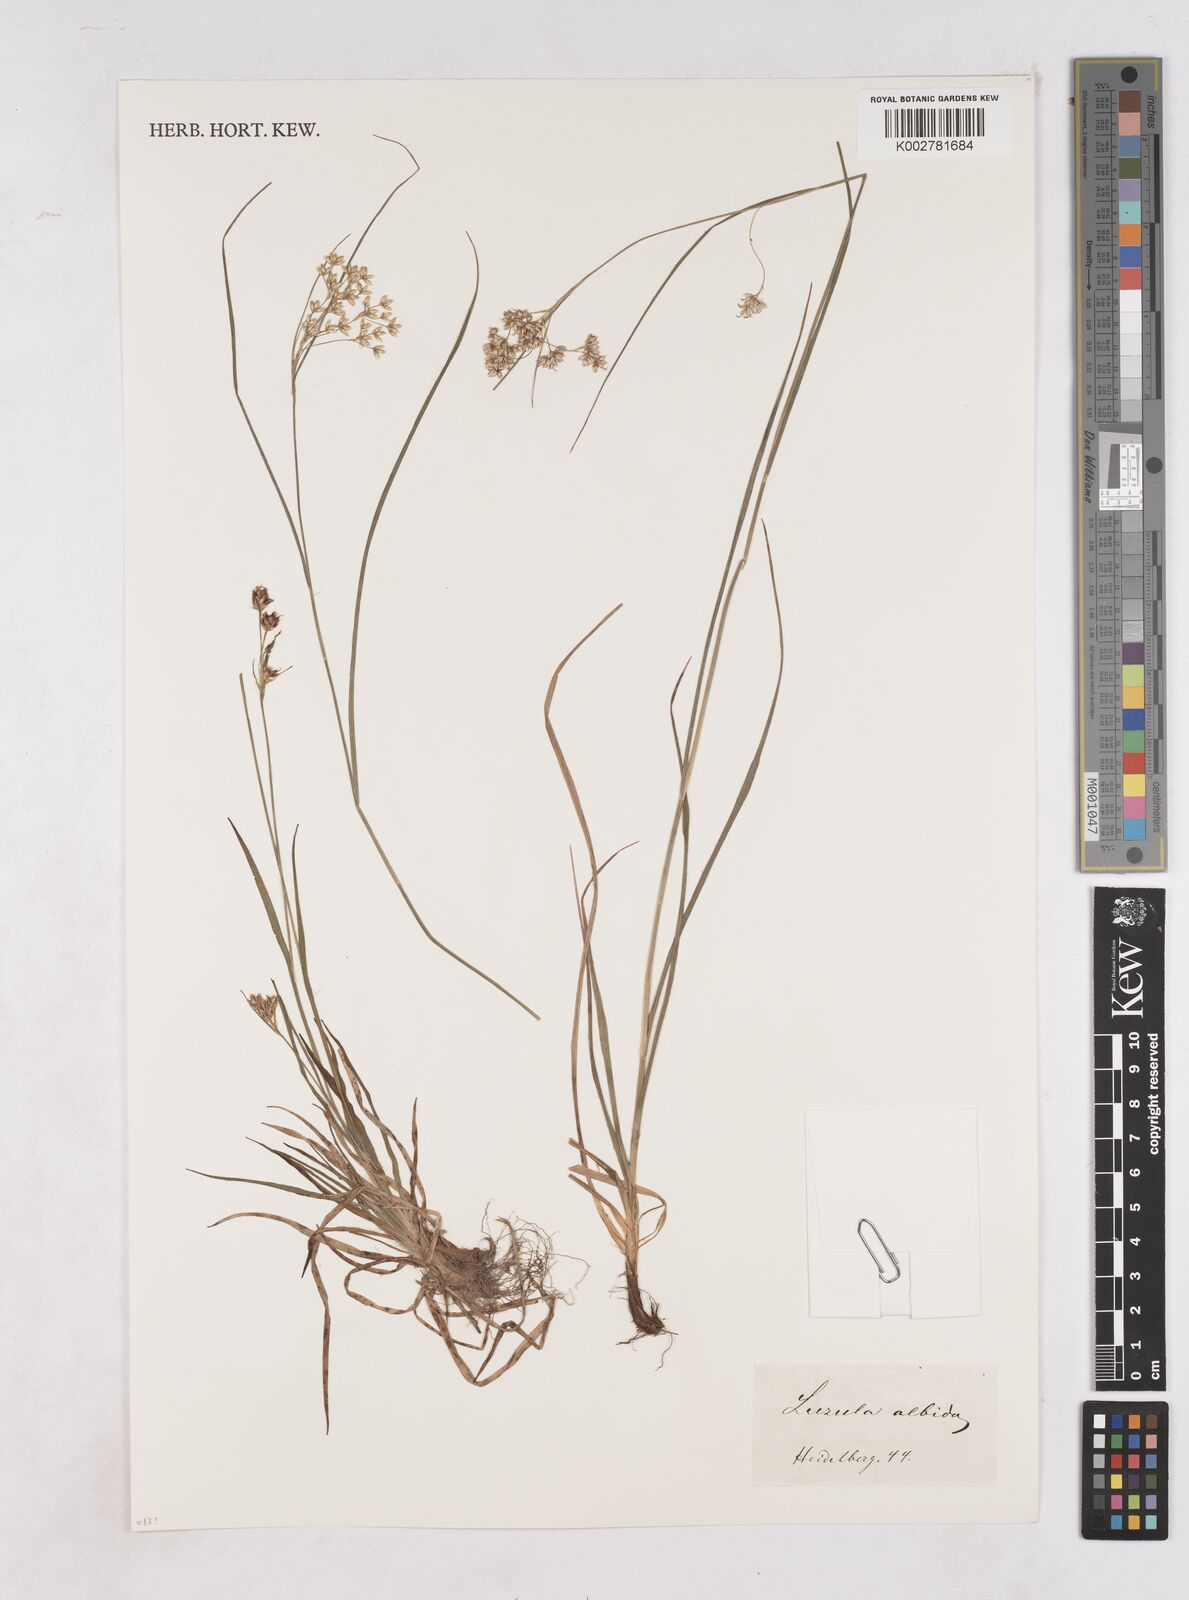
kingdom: Plantae
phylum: Tracheophyta
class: Liliopsida
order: Poales
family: Juncaceae
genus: Luzula
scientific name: Luzula luzuloides
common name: White wood-rush
